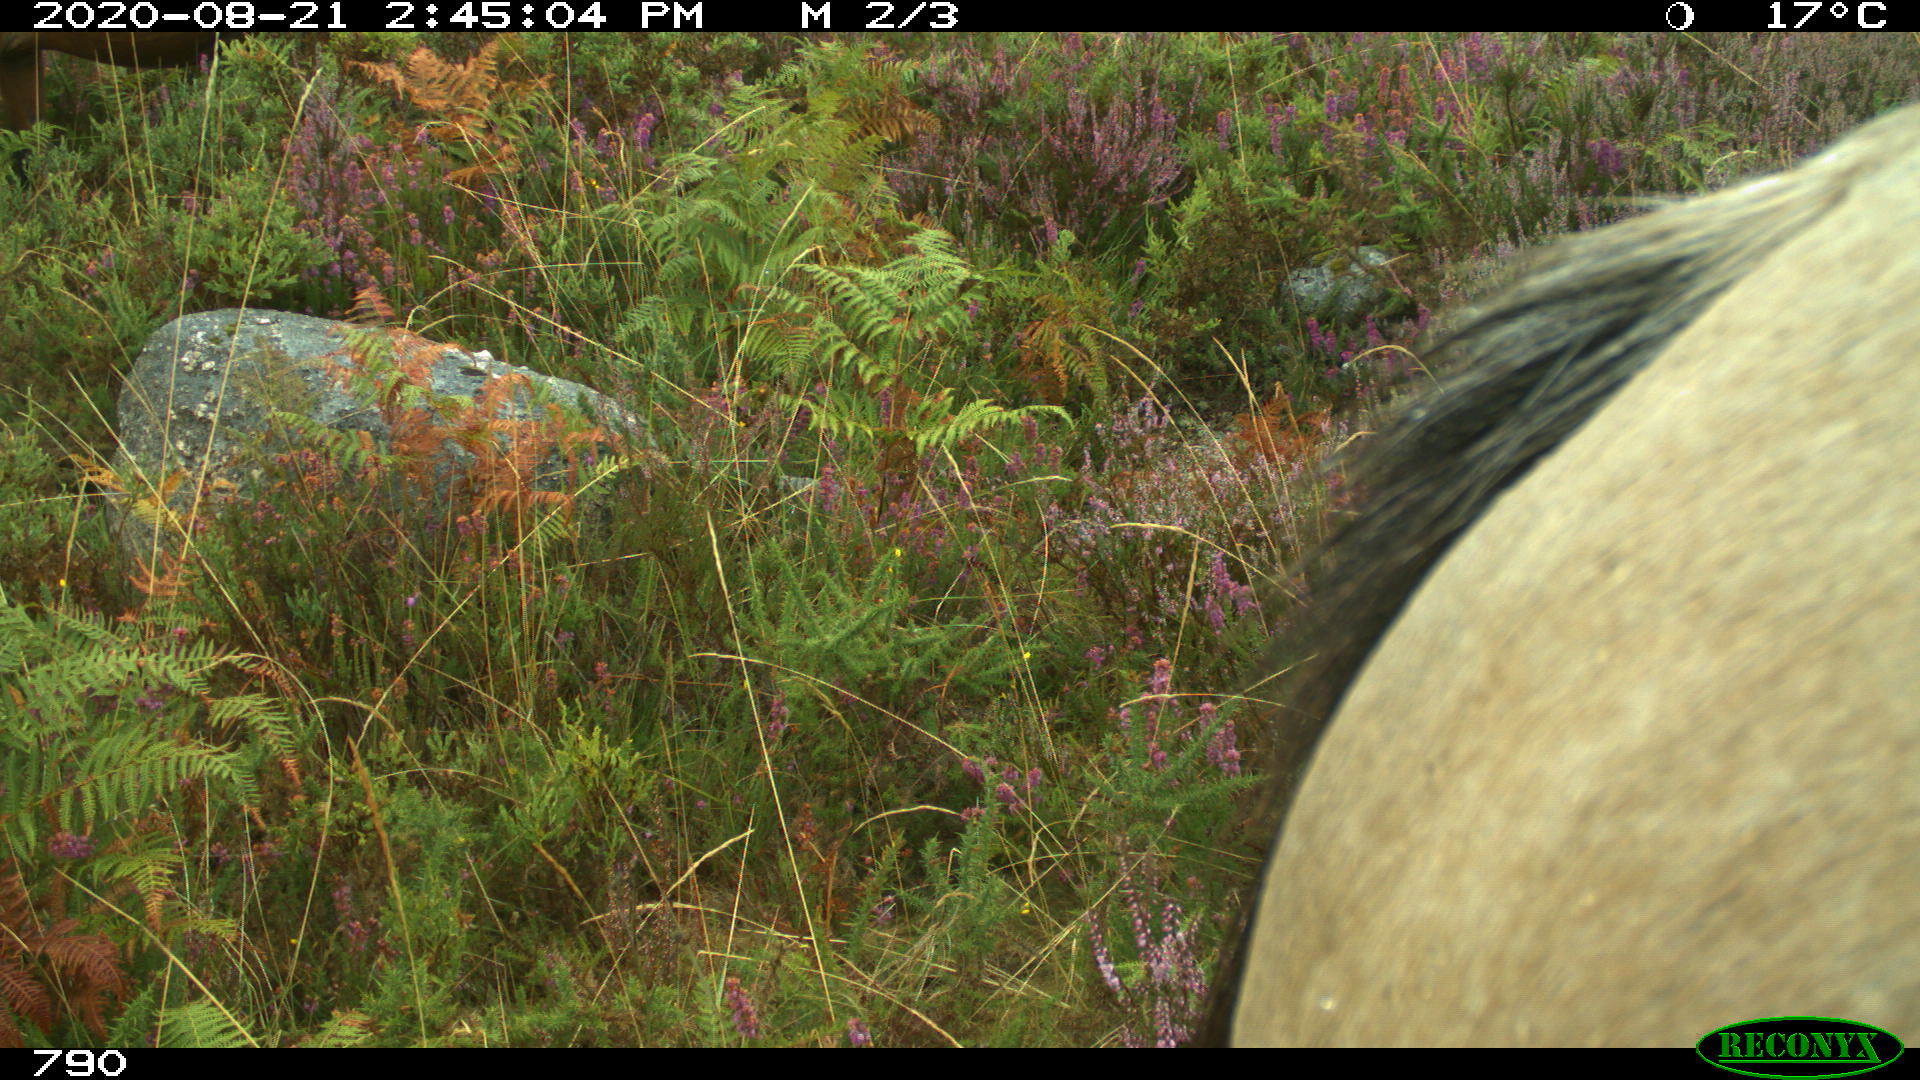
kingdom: Animalia
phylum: Chordata
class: Mammalia
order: Perissodactyla
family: Equidae
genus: Equus
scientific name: Equus caballus
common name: Horse
